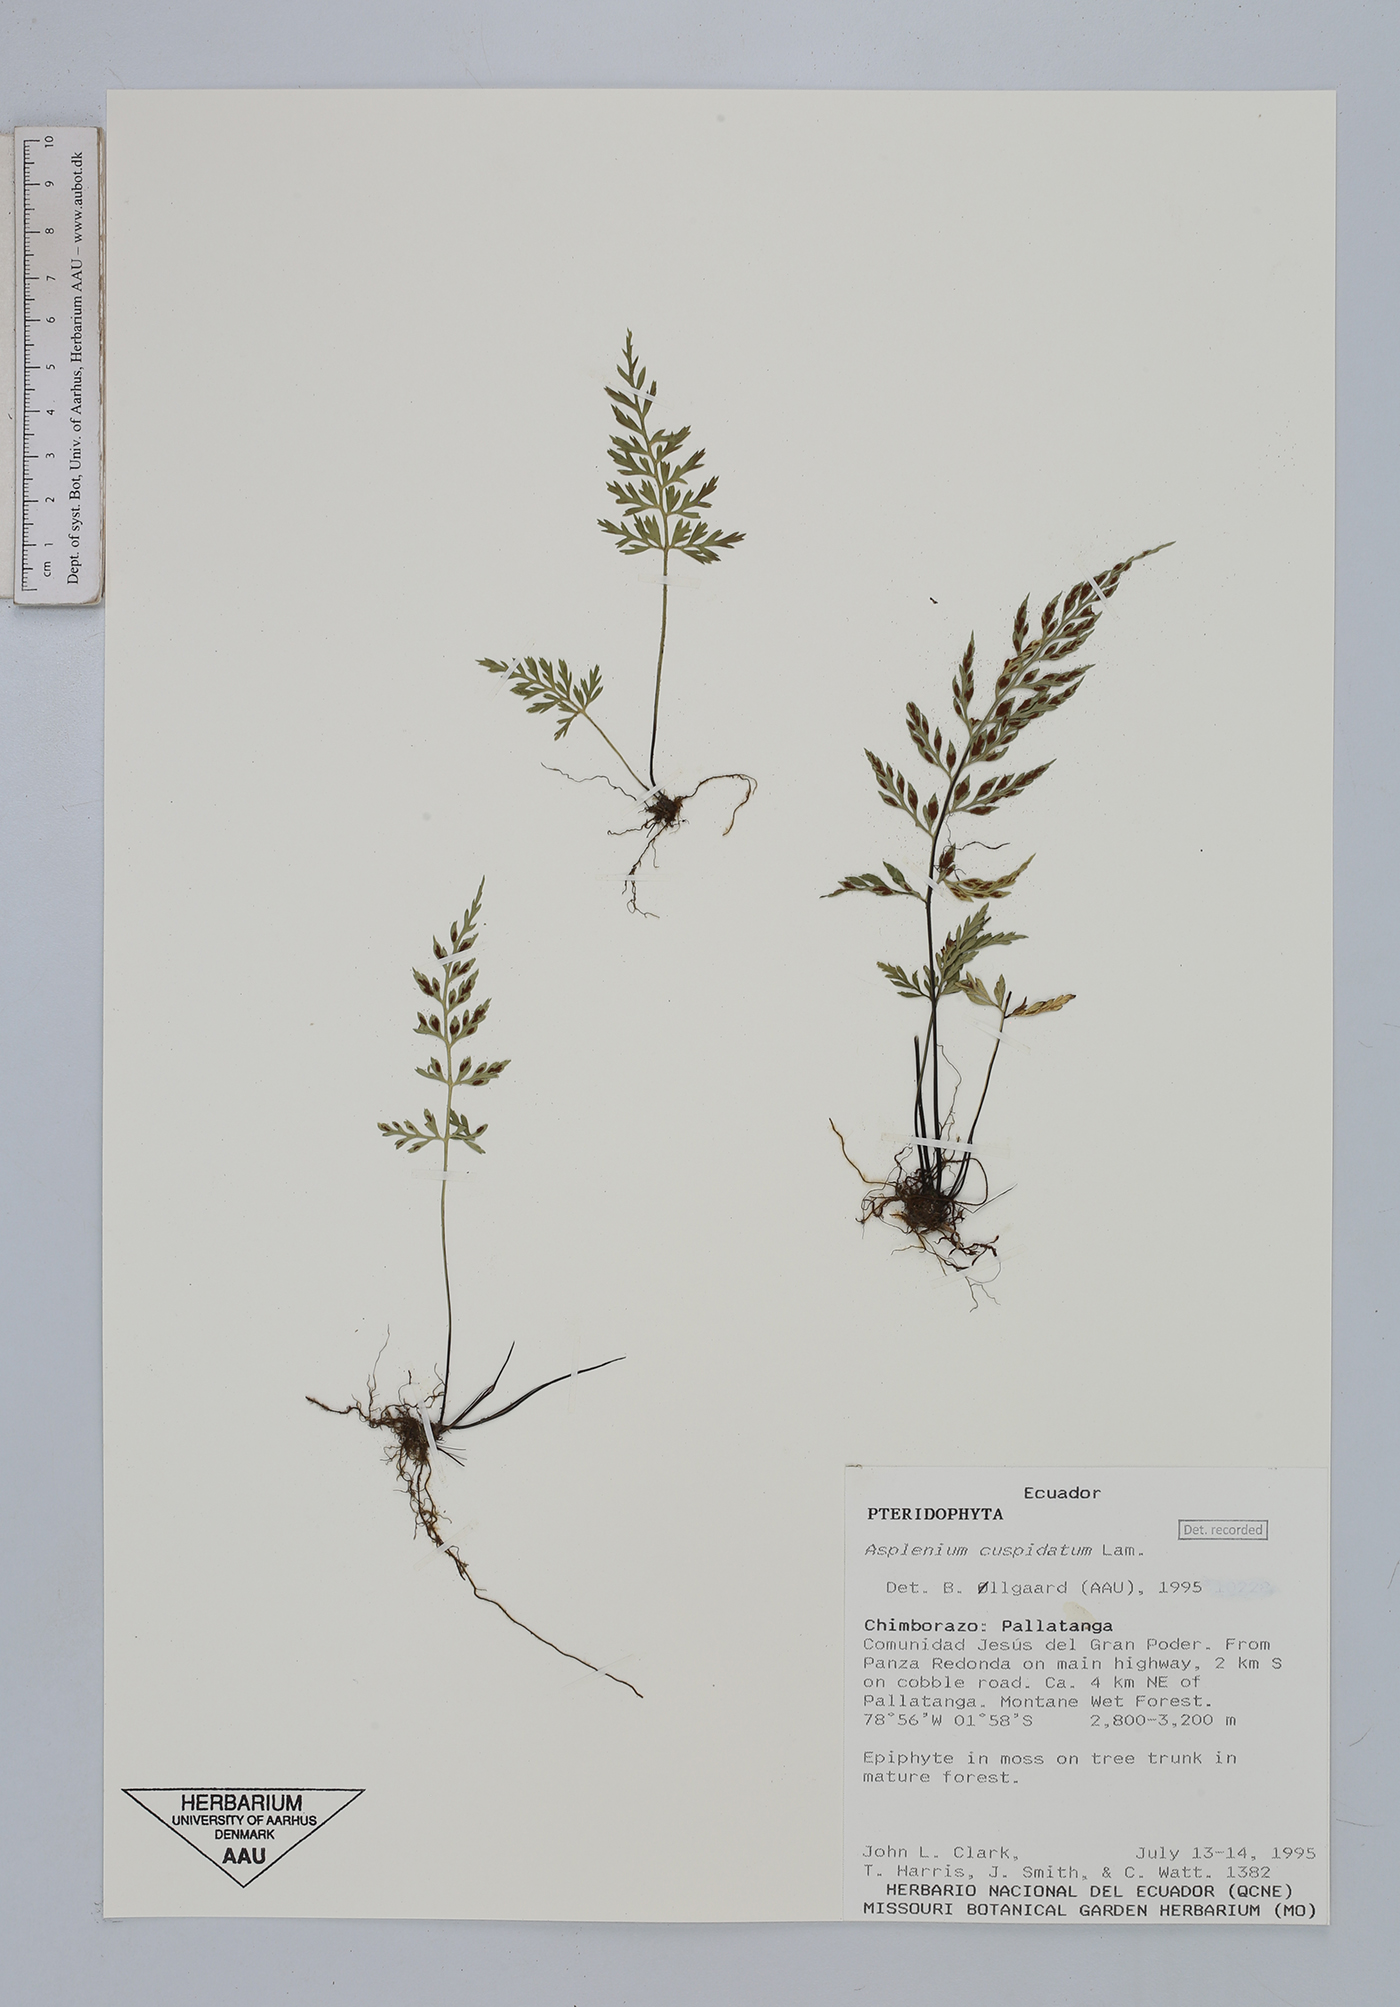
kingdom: Plantae
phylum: Tracheophyta
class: Polypodiopsida
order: Polypodiales
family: Aspleniaceae
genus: Asplenium
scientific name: Asplenium cuspidatum
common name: Eared spleenwort
